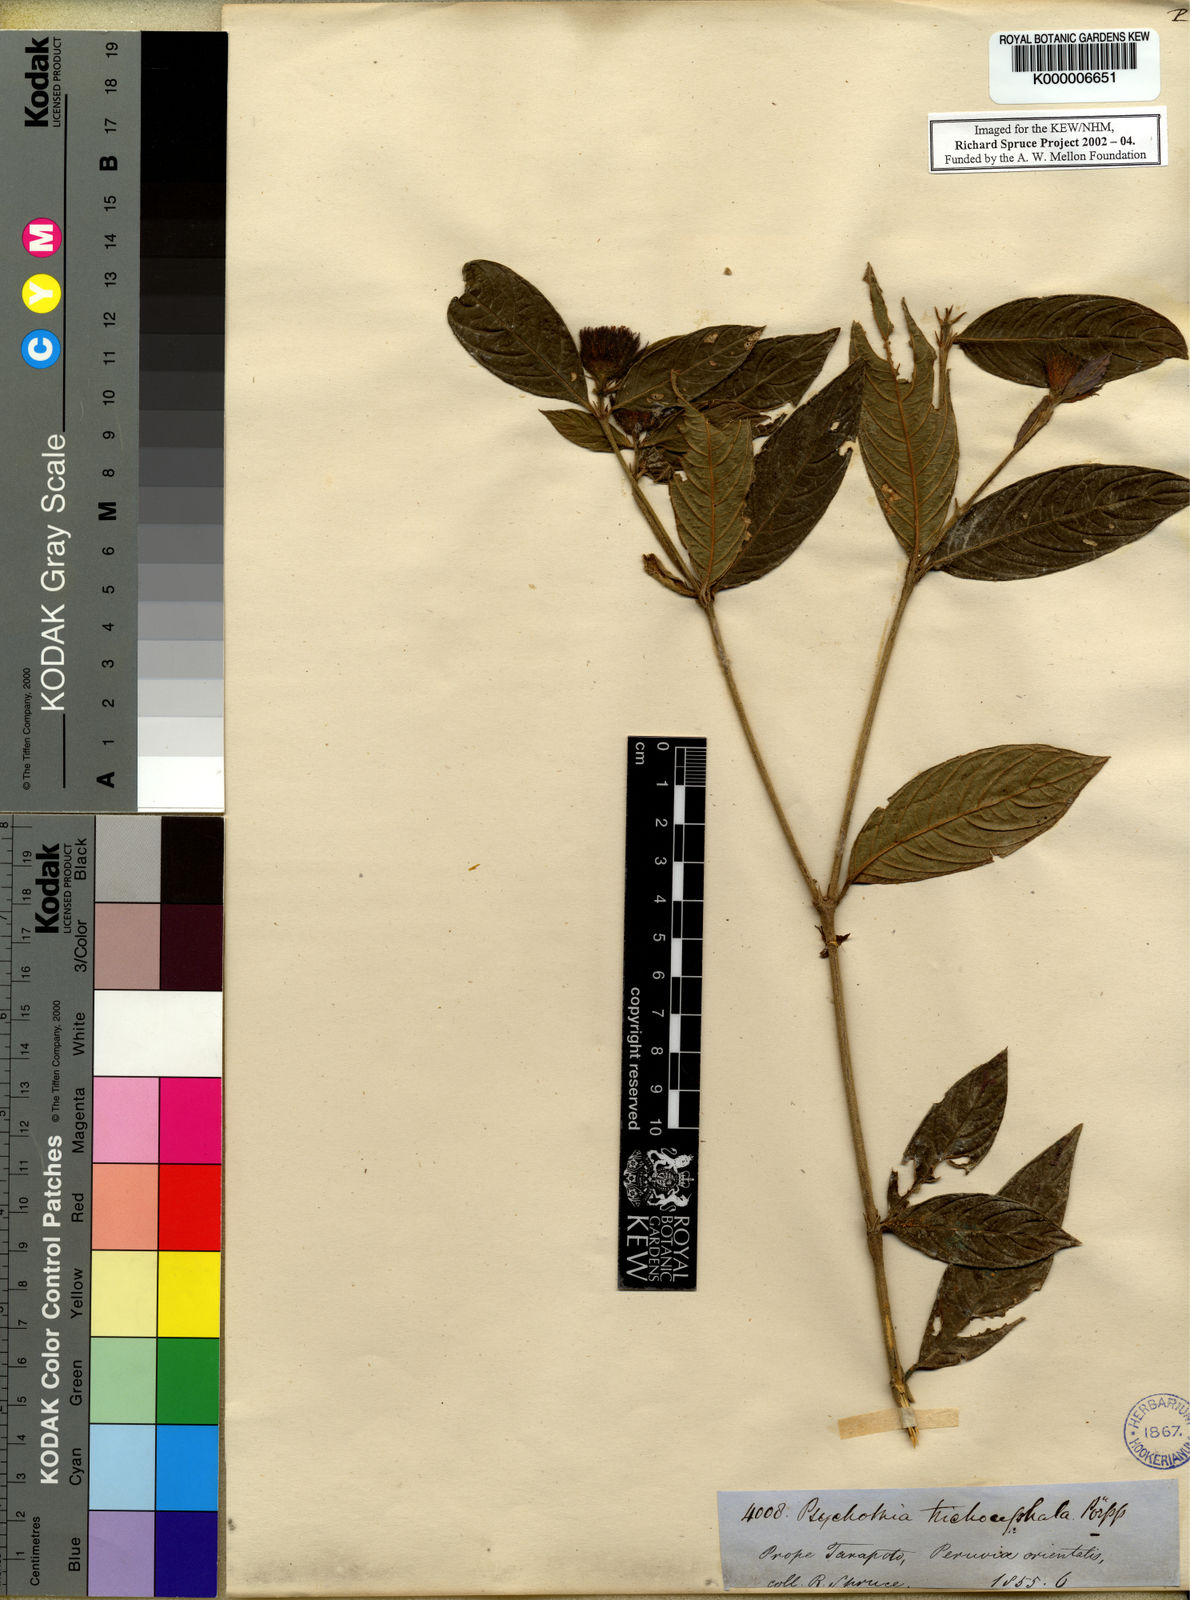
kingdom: Plantae
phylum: Tracheophyta
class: Magnoliopsida
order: Gentianales
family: Rubiaceae
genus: Palicourea
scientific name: Palicourea trichocephala
